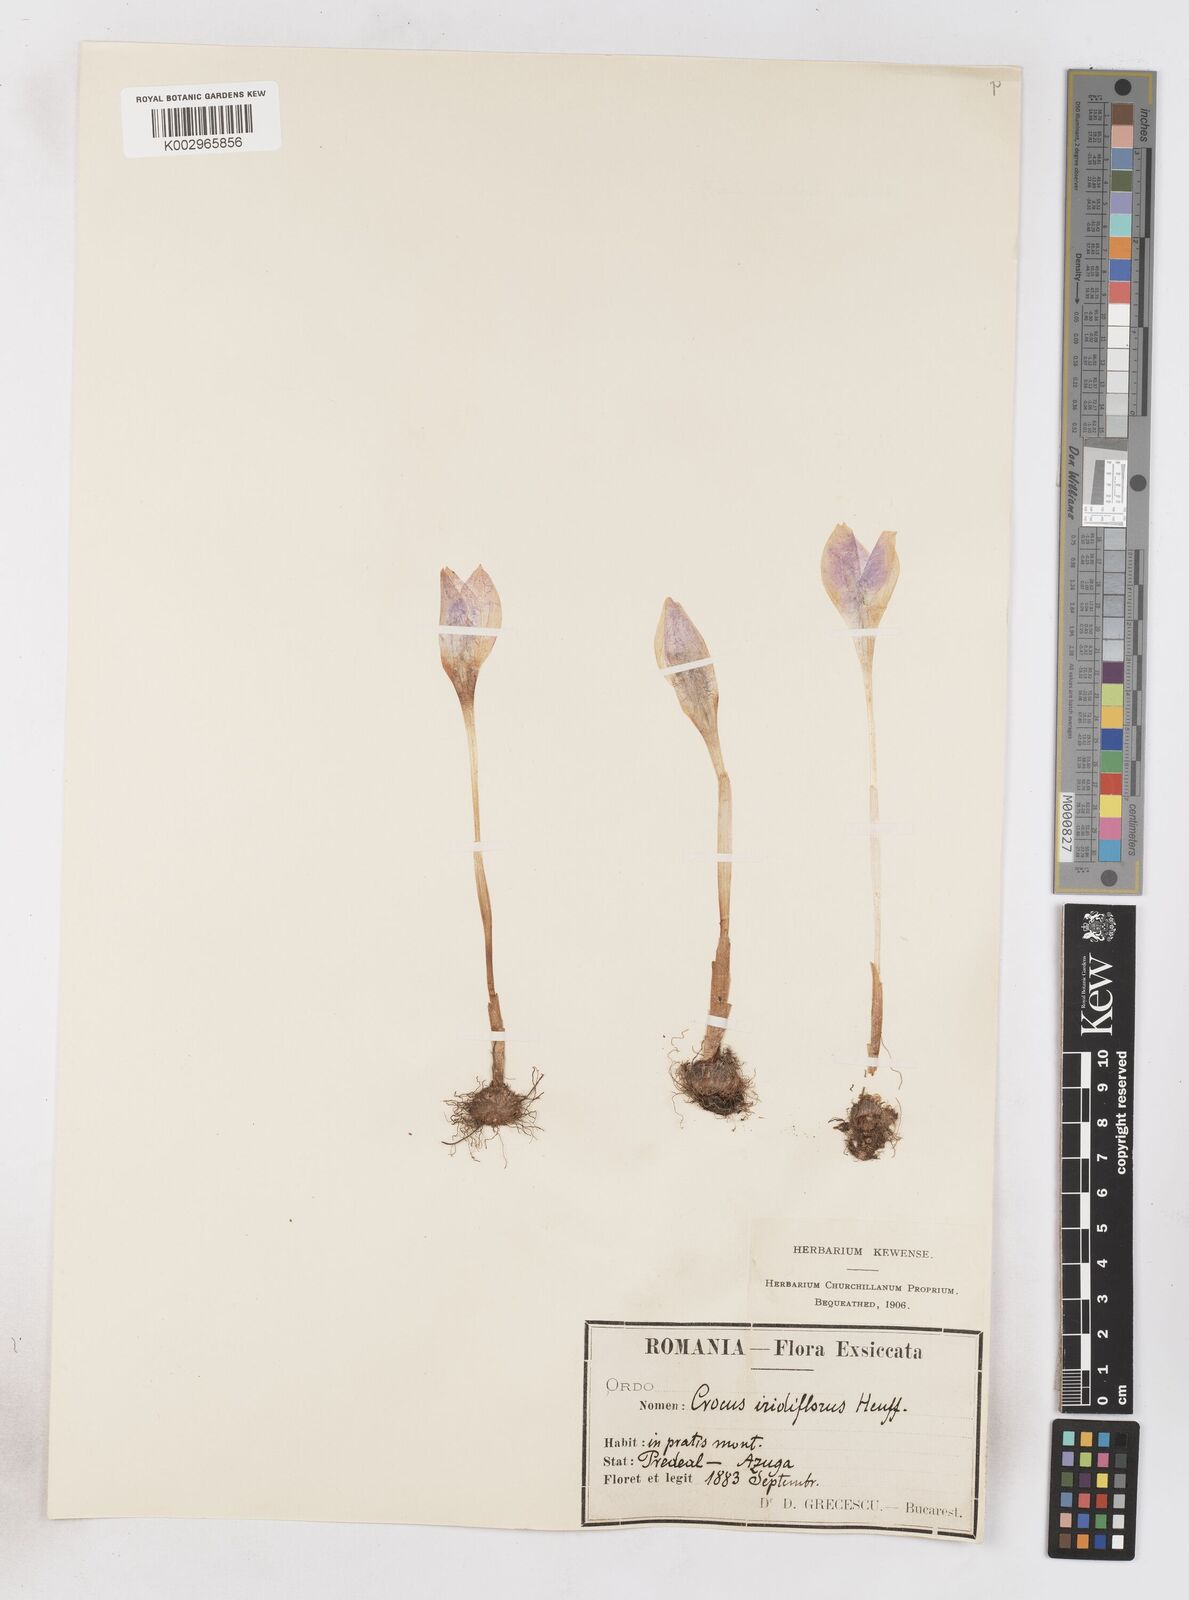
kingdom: Plantae
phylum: Tracheophyta
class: Liliopsida
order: Asparagales
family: Iridaceae
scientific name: Iridaceae
